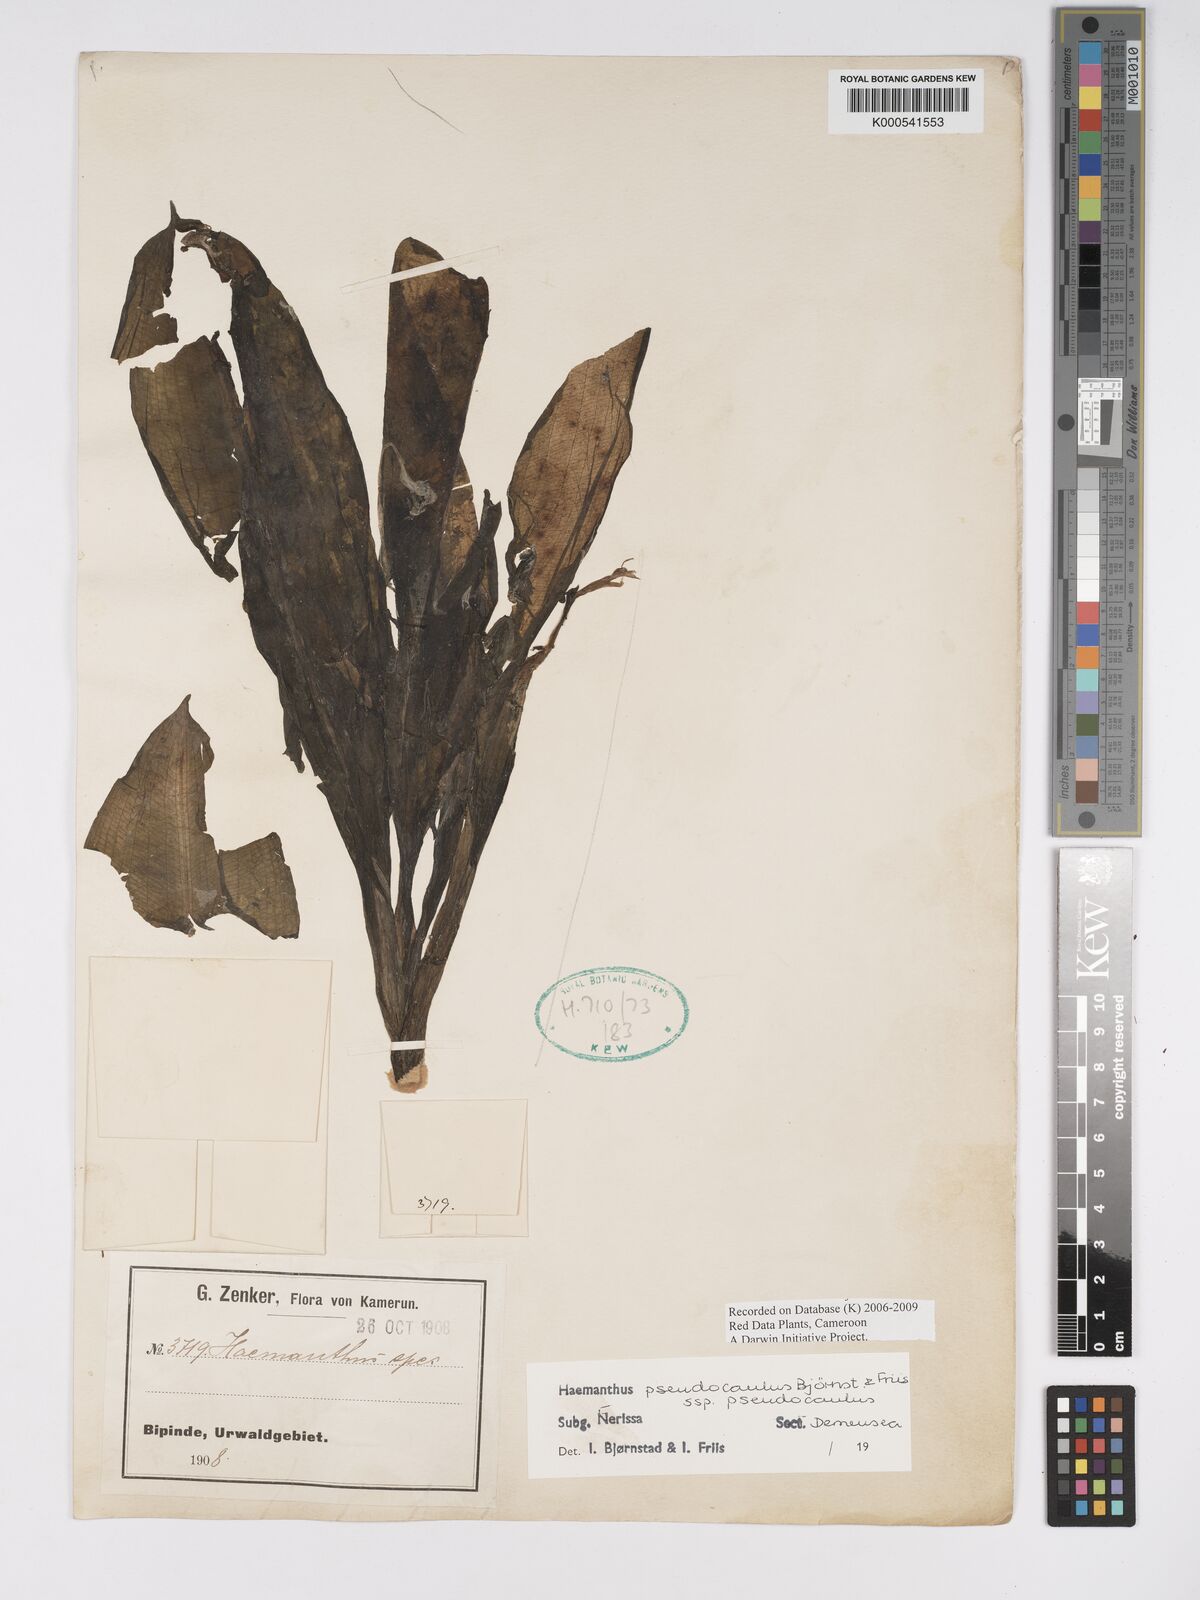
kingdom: Plantae
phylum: Tracheophyta
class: Liliopsida
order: Asparagales
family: Amaryllidaceae
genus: Scadoxus
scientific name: Scadoxus pseudocaulus
